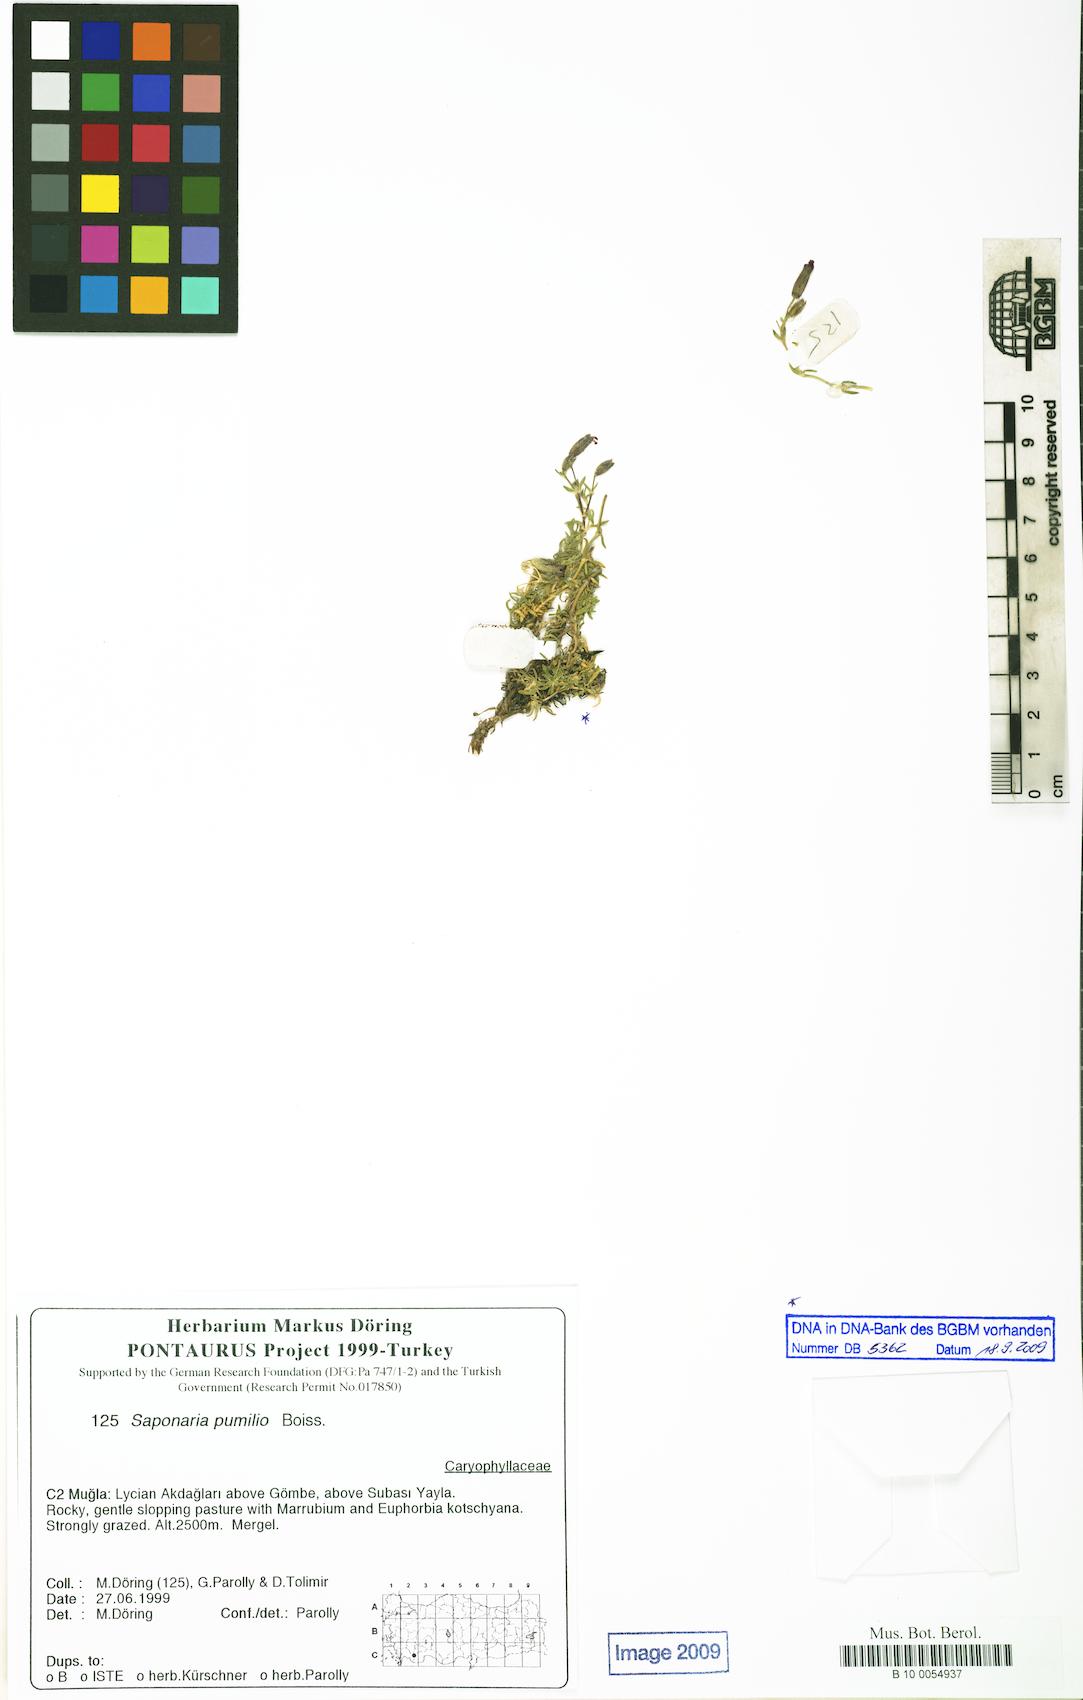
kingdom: Plantae
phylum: Tracheophyta
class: Magnoliopsida
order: Caryophyllales
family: Caryophyllaceae
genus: Saponaria
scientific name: Saponaria pumilio
